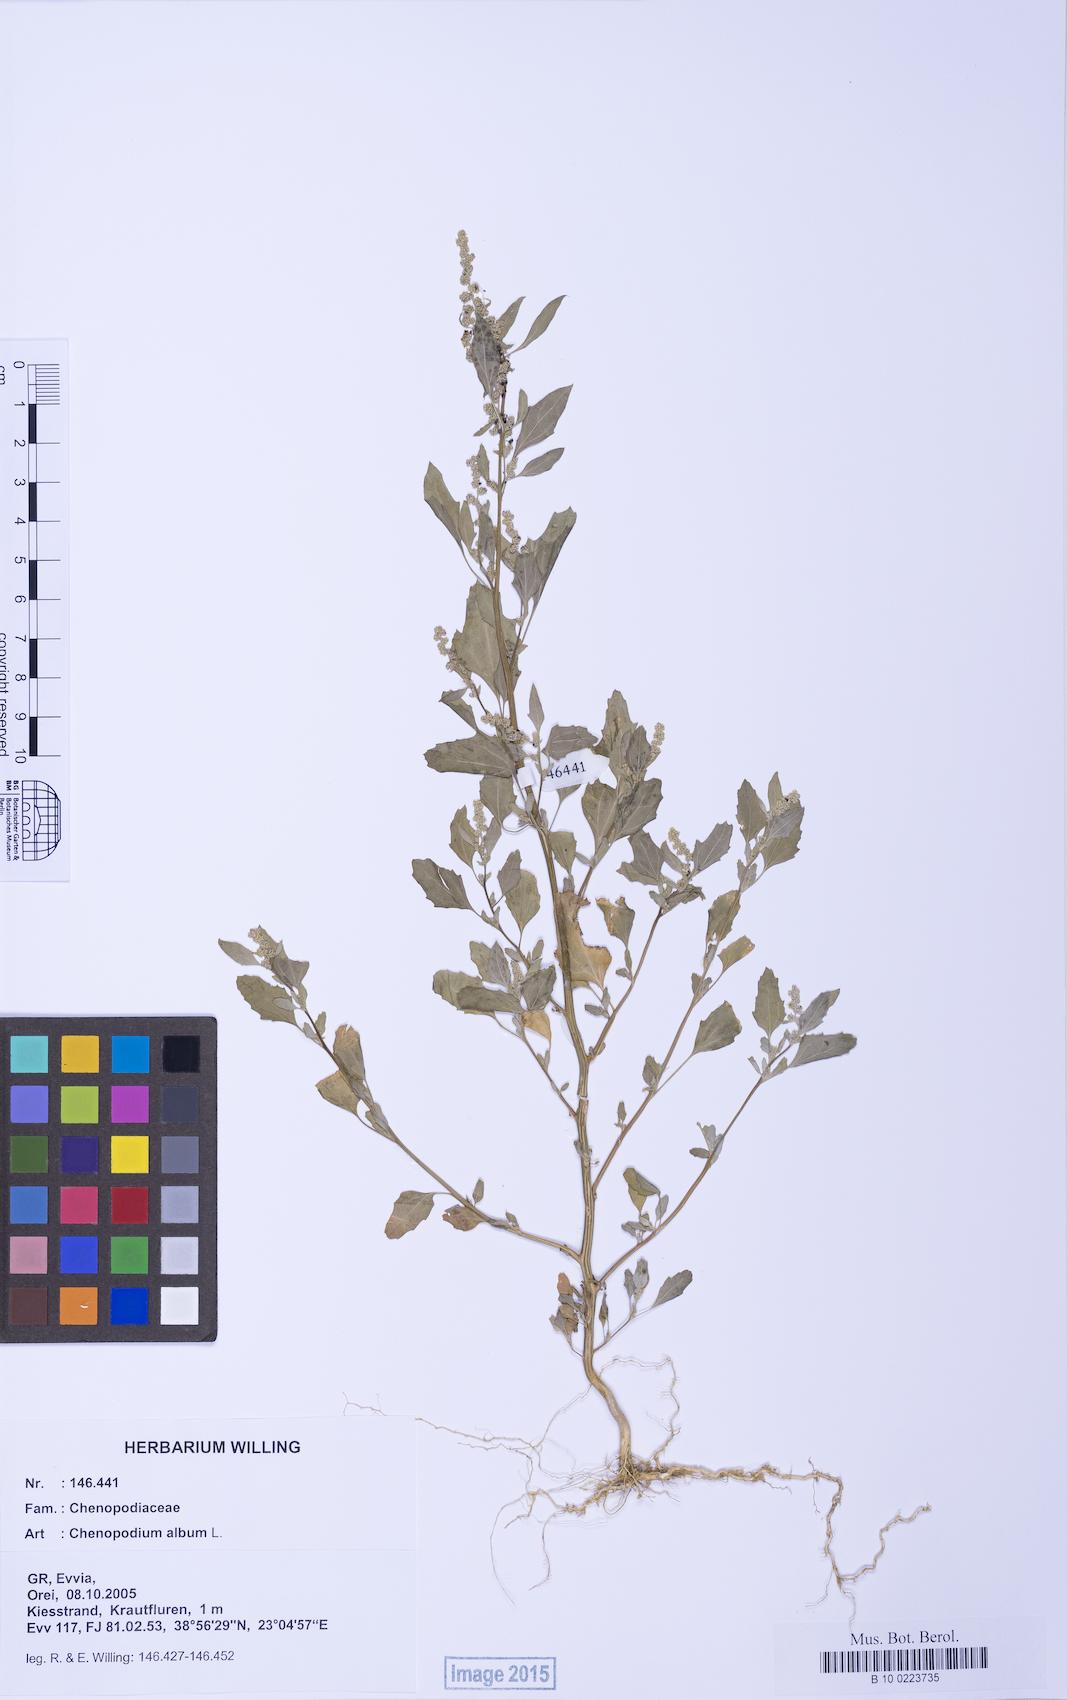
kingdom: Plantae
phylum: Tracheophyta
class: Magnoliopsida
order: Caryophyllales
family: Amaranthaceae
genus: Chenopodium
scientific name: Chenopodium album
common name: Fat-hen
